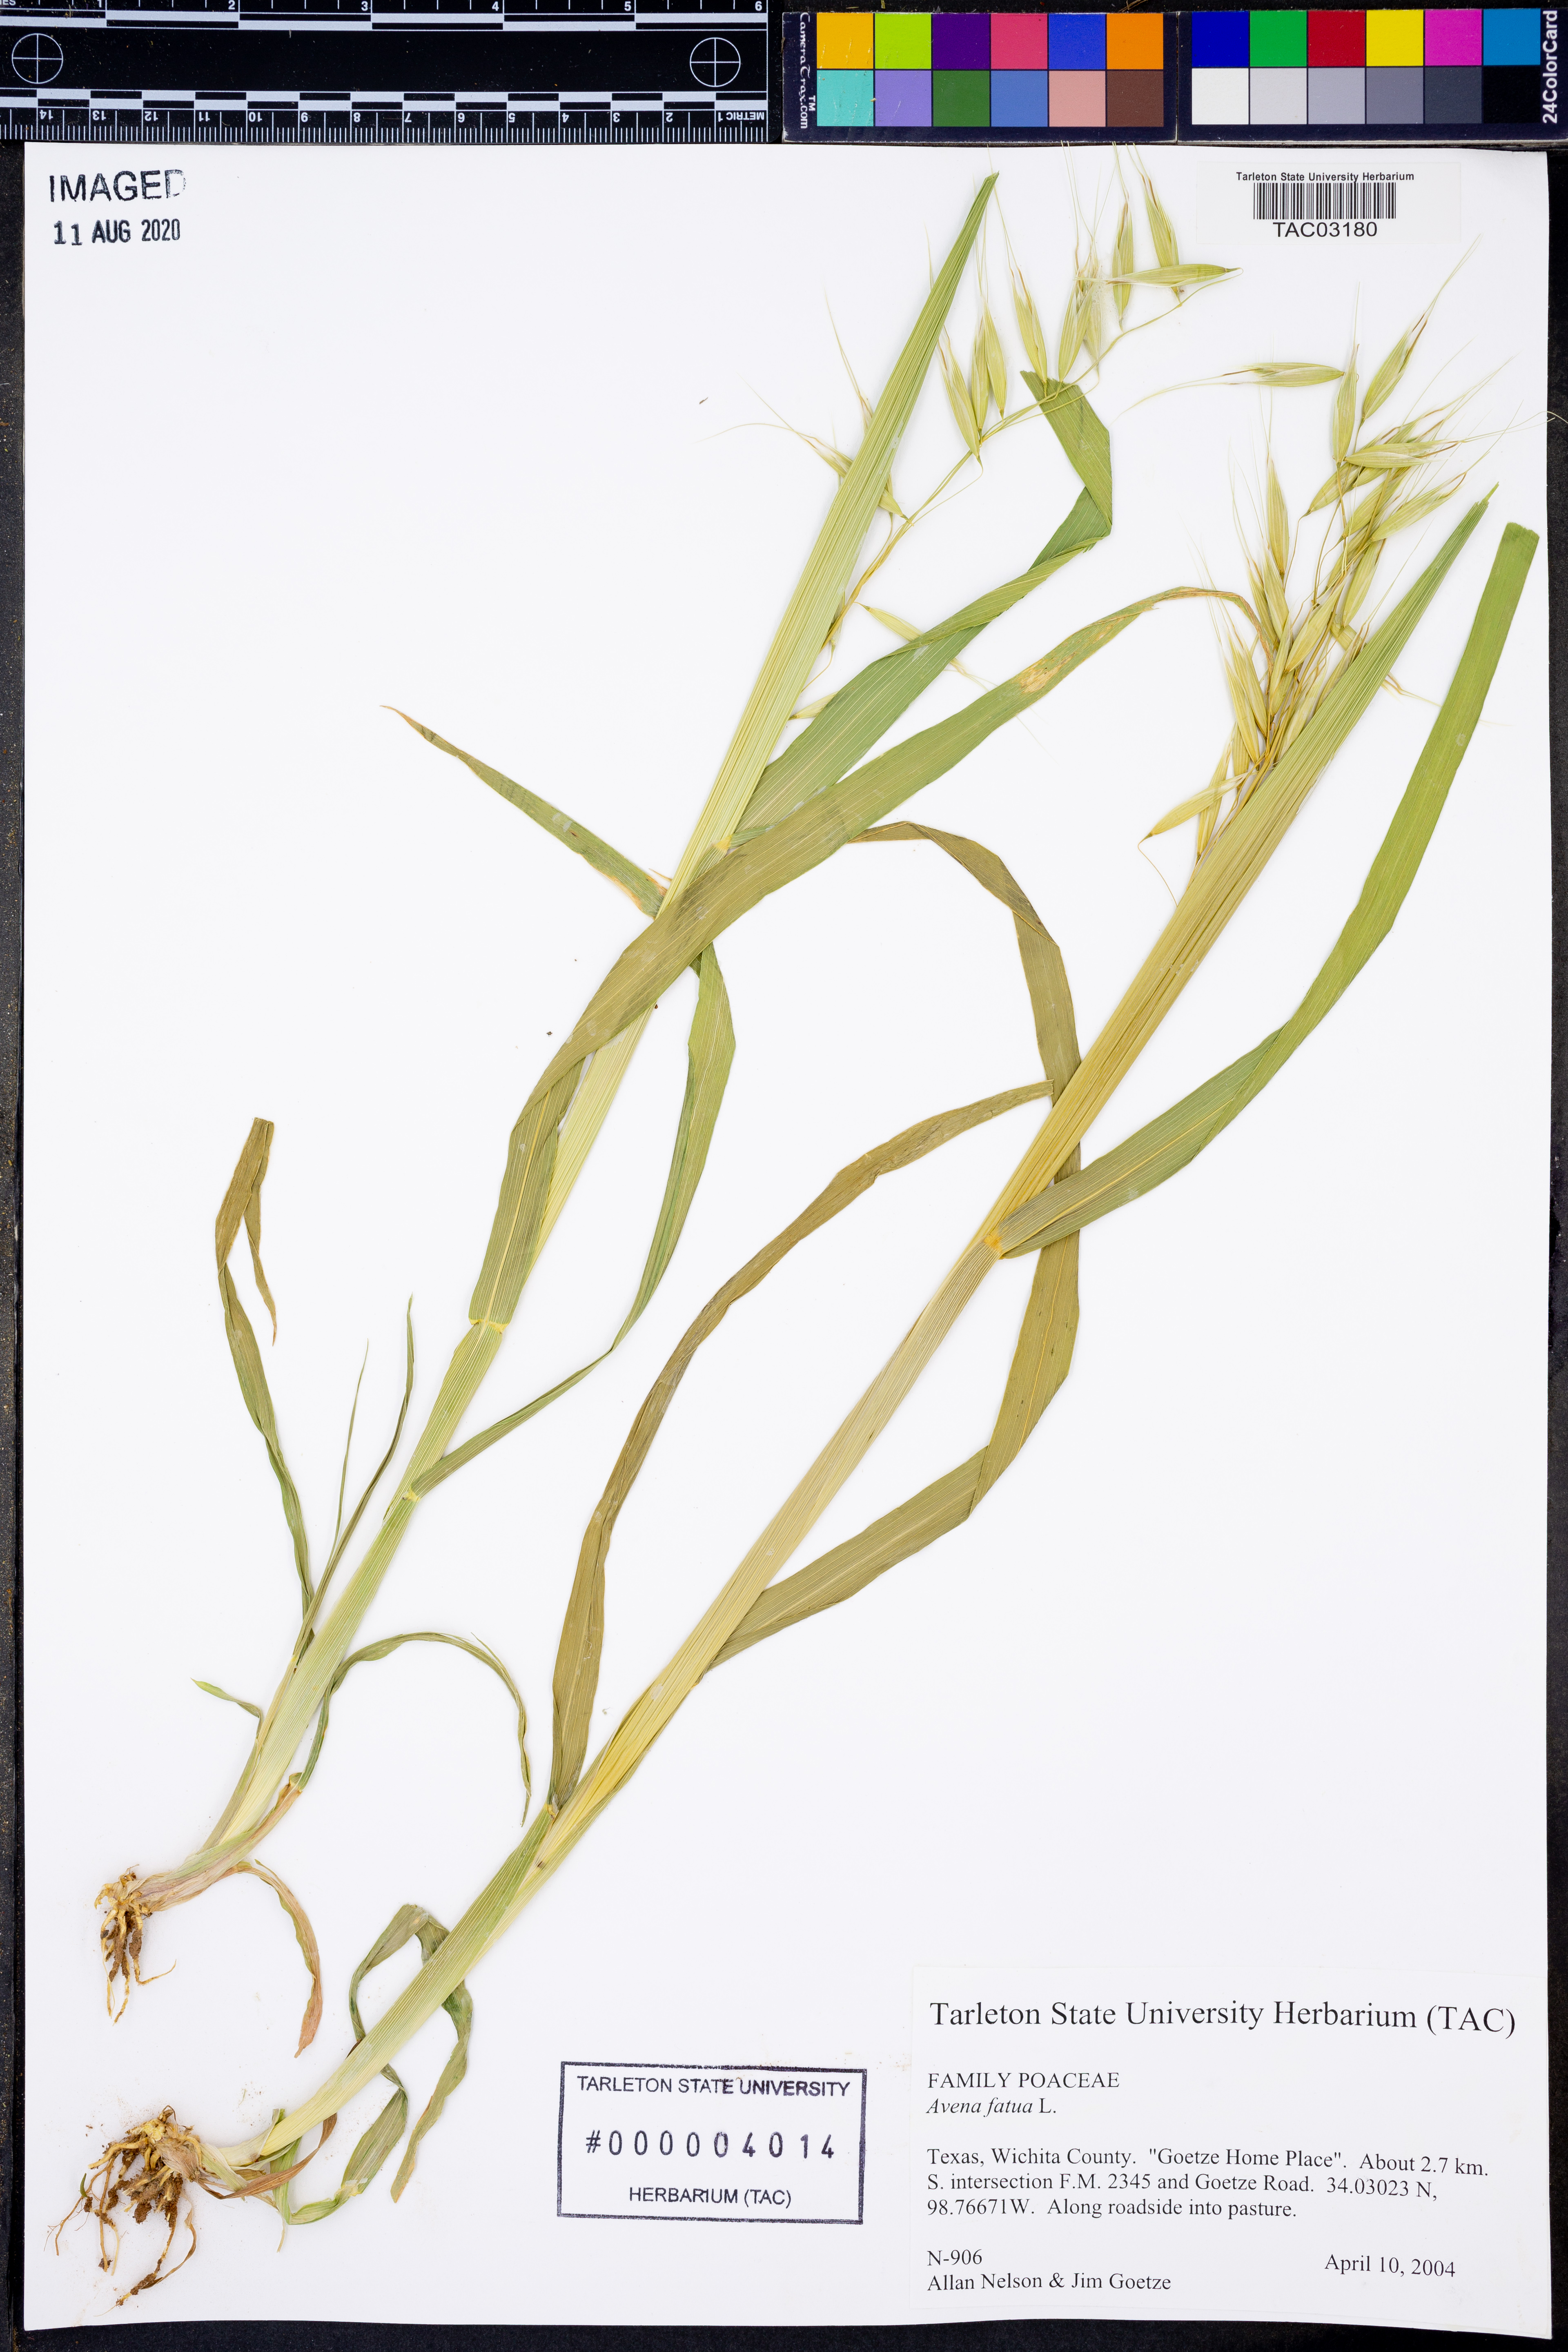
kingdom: Plantae
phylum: Tracheophyta
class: Liliopsida
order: Poales
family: Poaceae
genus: Avena
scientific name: Avena fatua
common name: Wild oat
